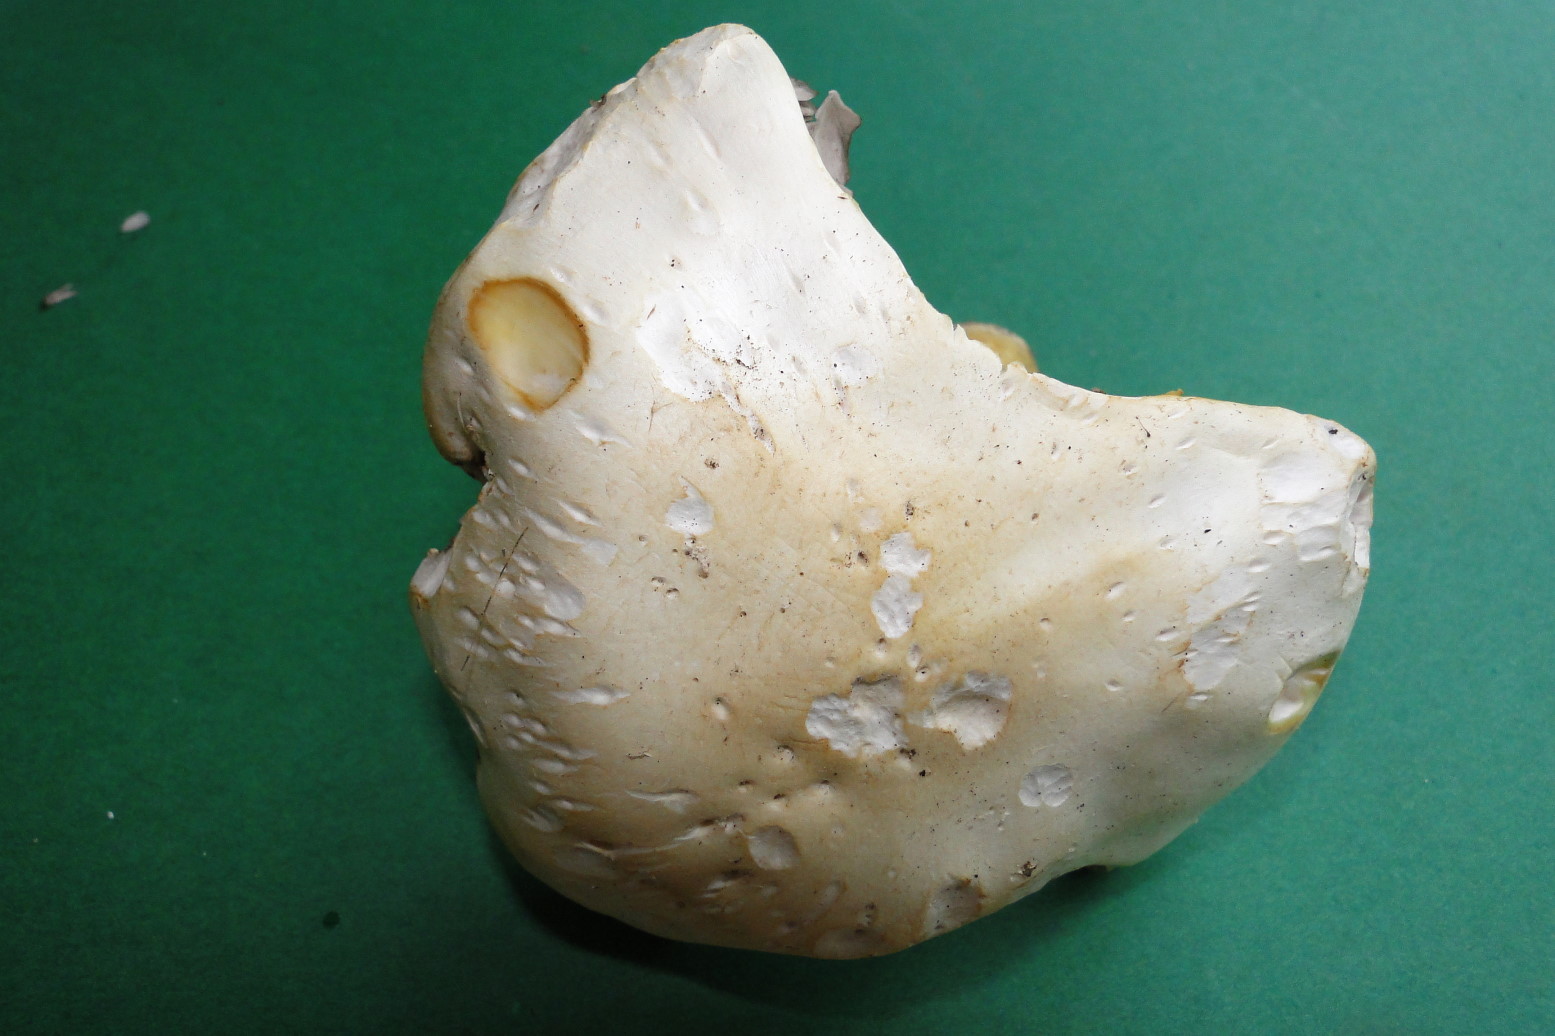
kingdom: Fungi
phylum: Basidiomycota
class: Agaricomycetes
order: Agaricales
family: Agaricaceae
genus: Agaricus
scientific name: Agaricus arvensis
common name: ager-champignon
